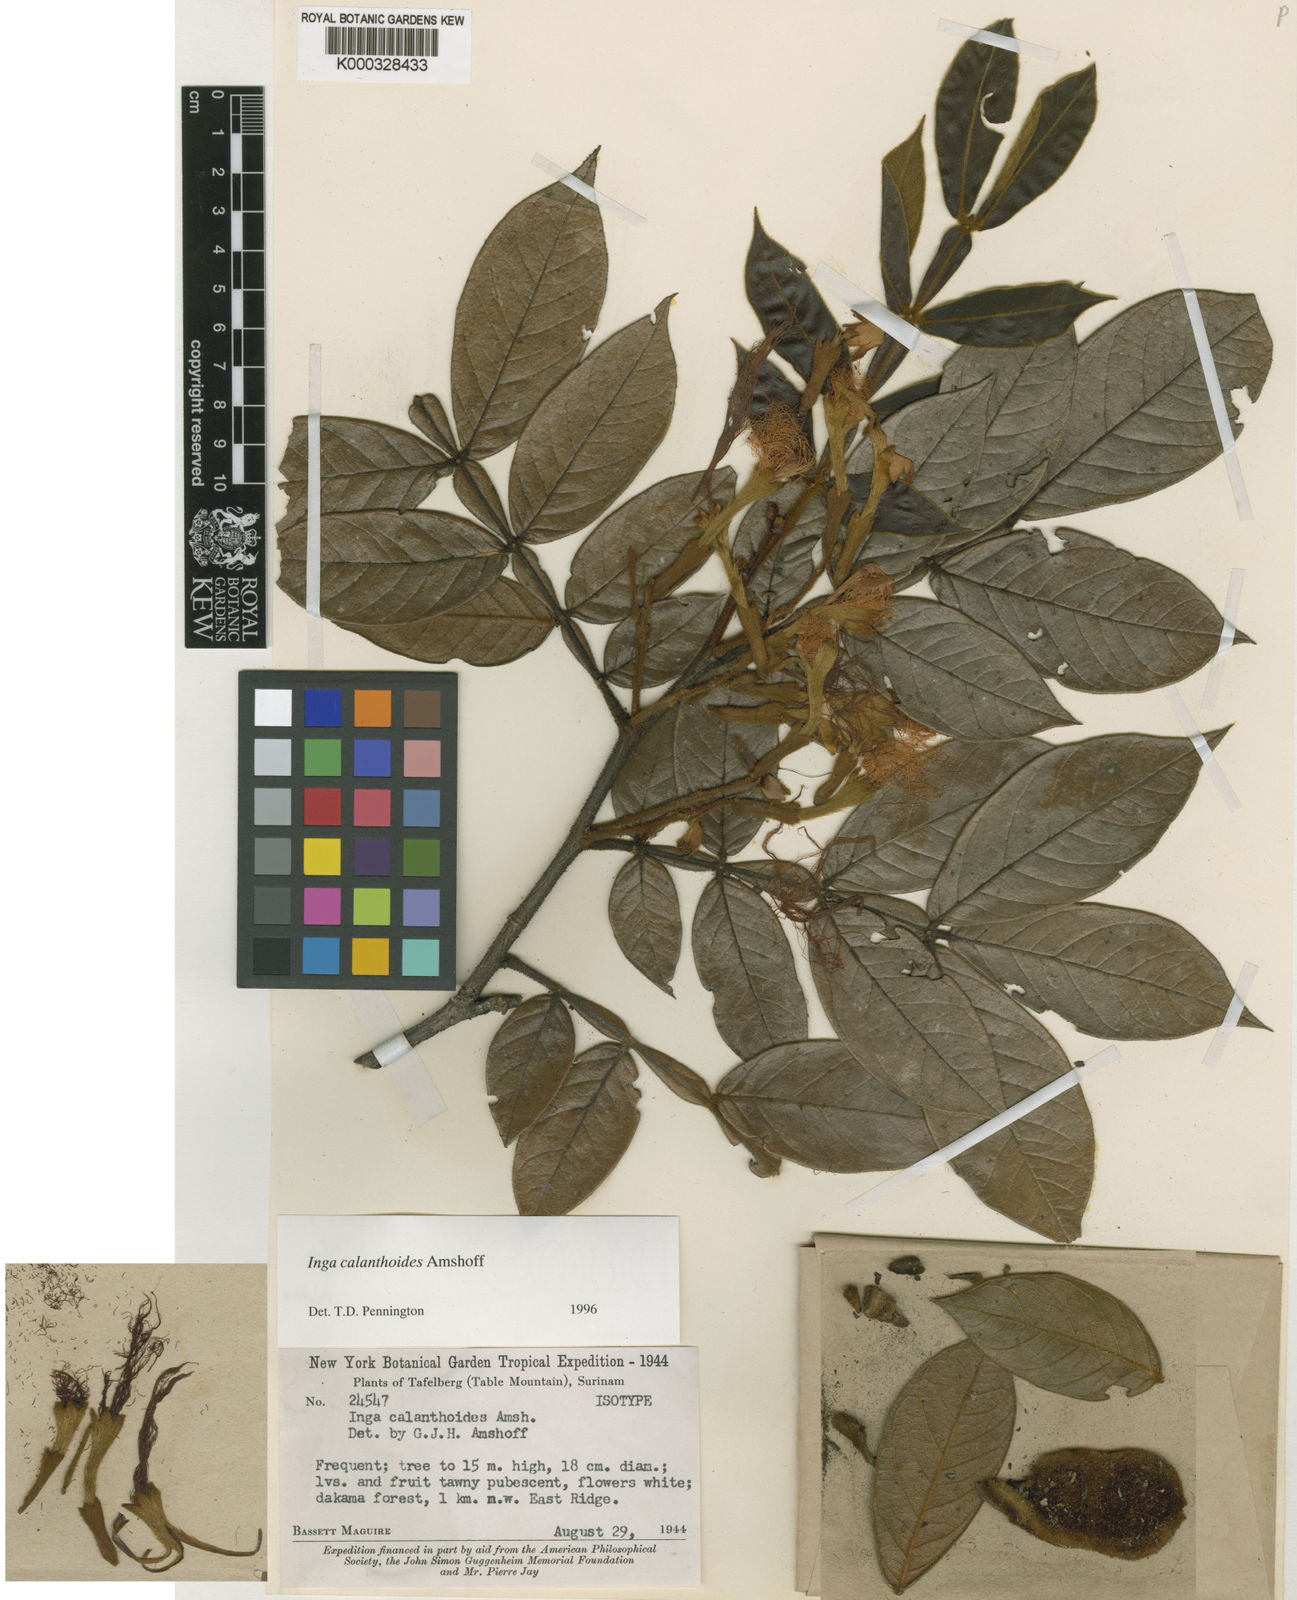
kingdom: Plantae
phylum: Tracheophyta
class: Magnoliopsida
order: Fabales
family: Fabaceae
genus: Inga
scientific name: Inga calanthoides
